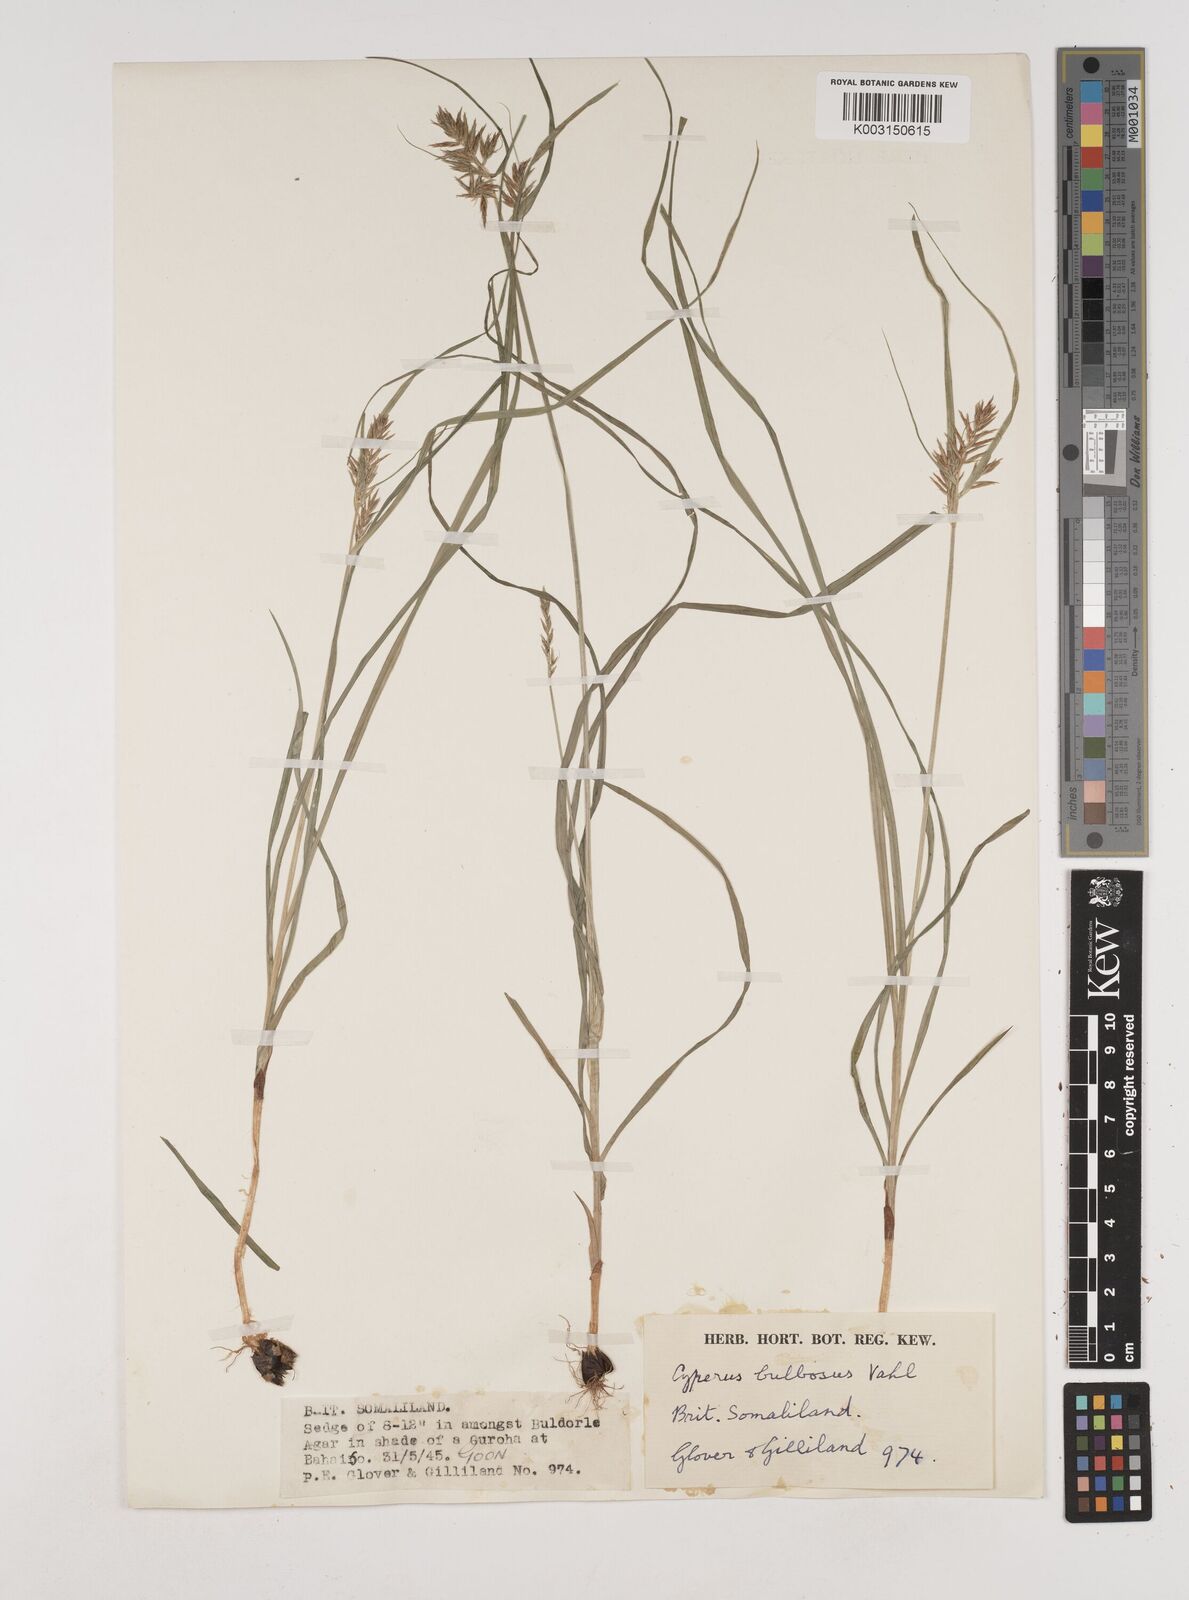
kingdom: Plantae
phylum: Tracheophyta
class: Liliopsida
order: Poales
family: Cyperaceae
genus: Cyperus
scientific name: Cyperus grandibulbosus
